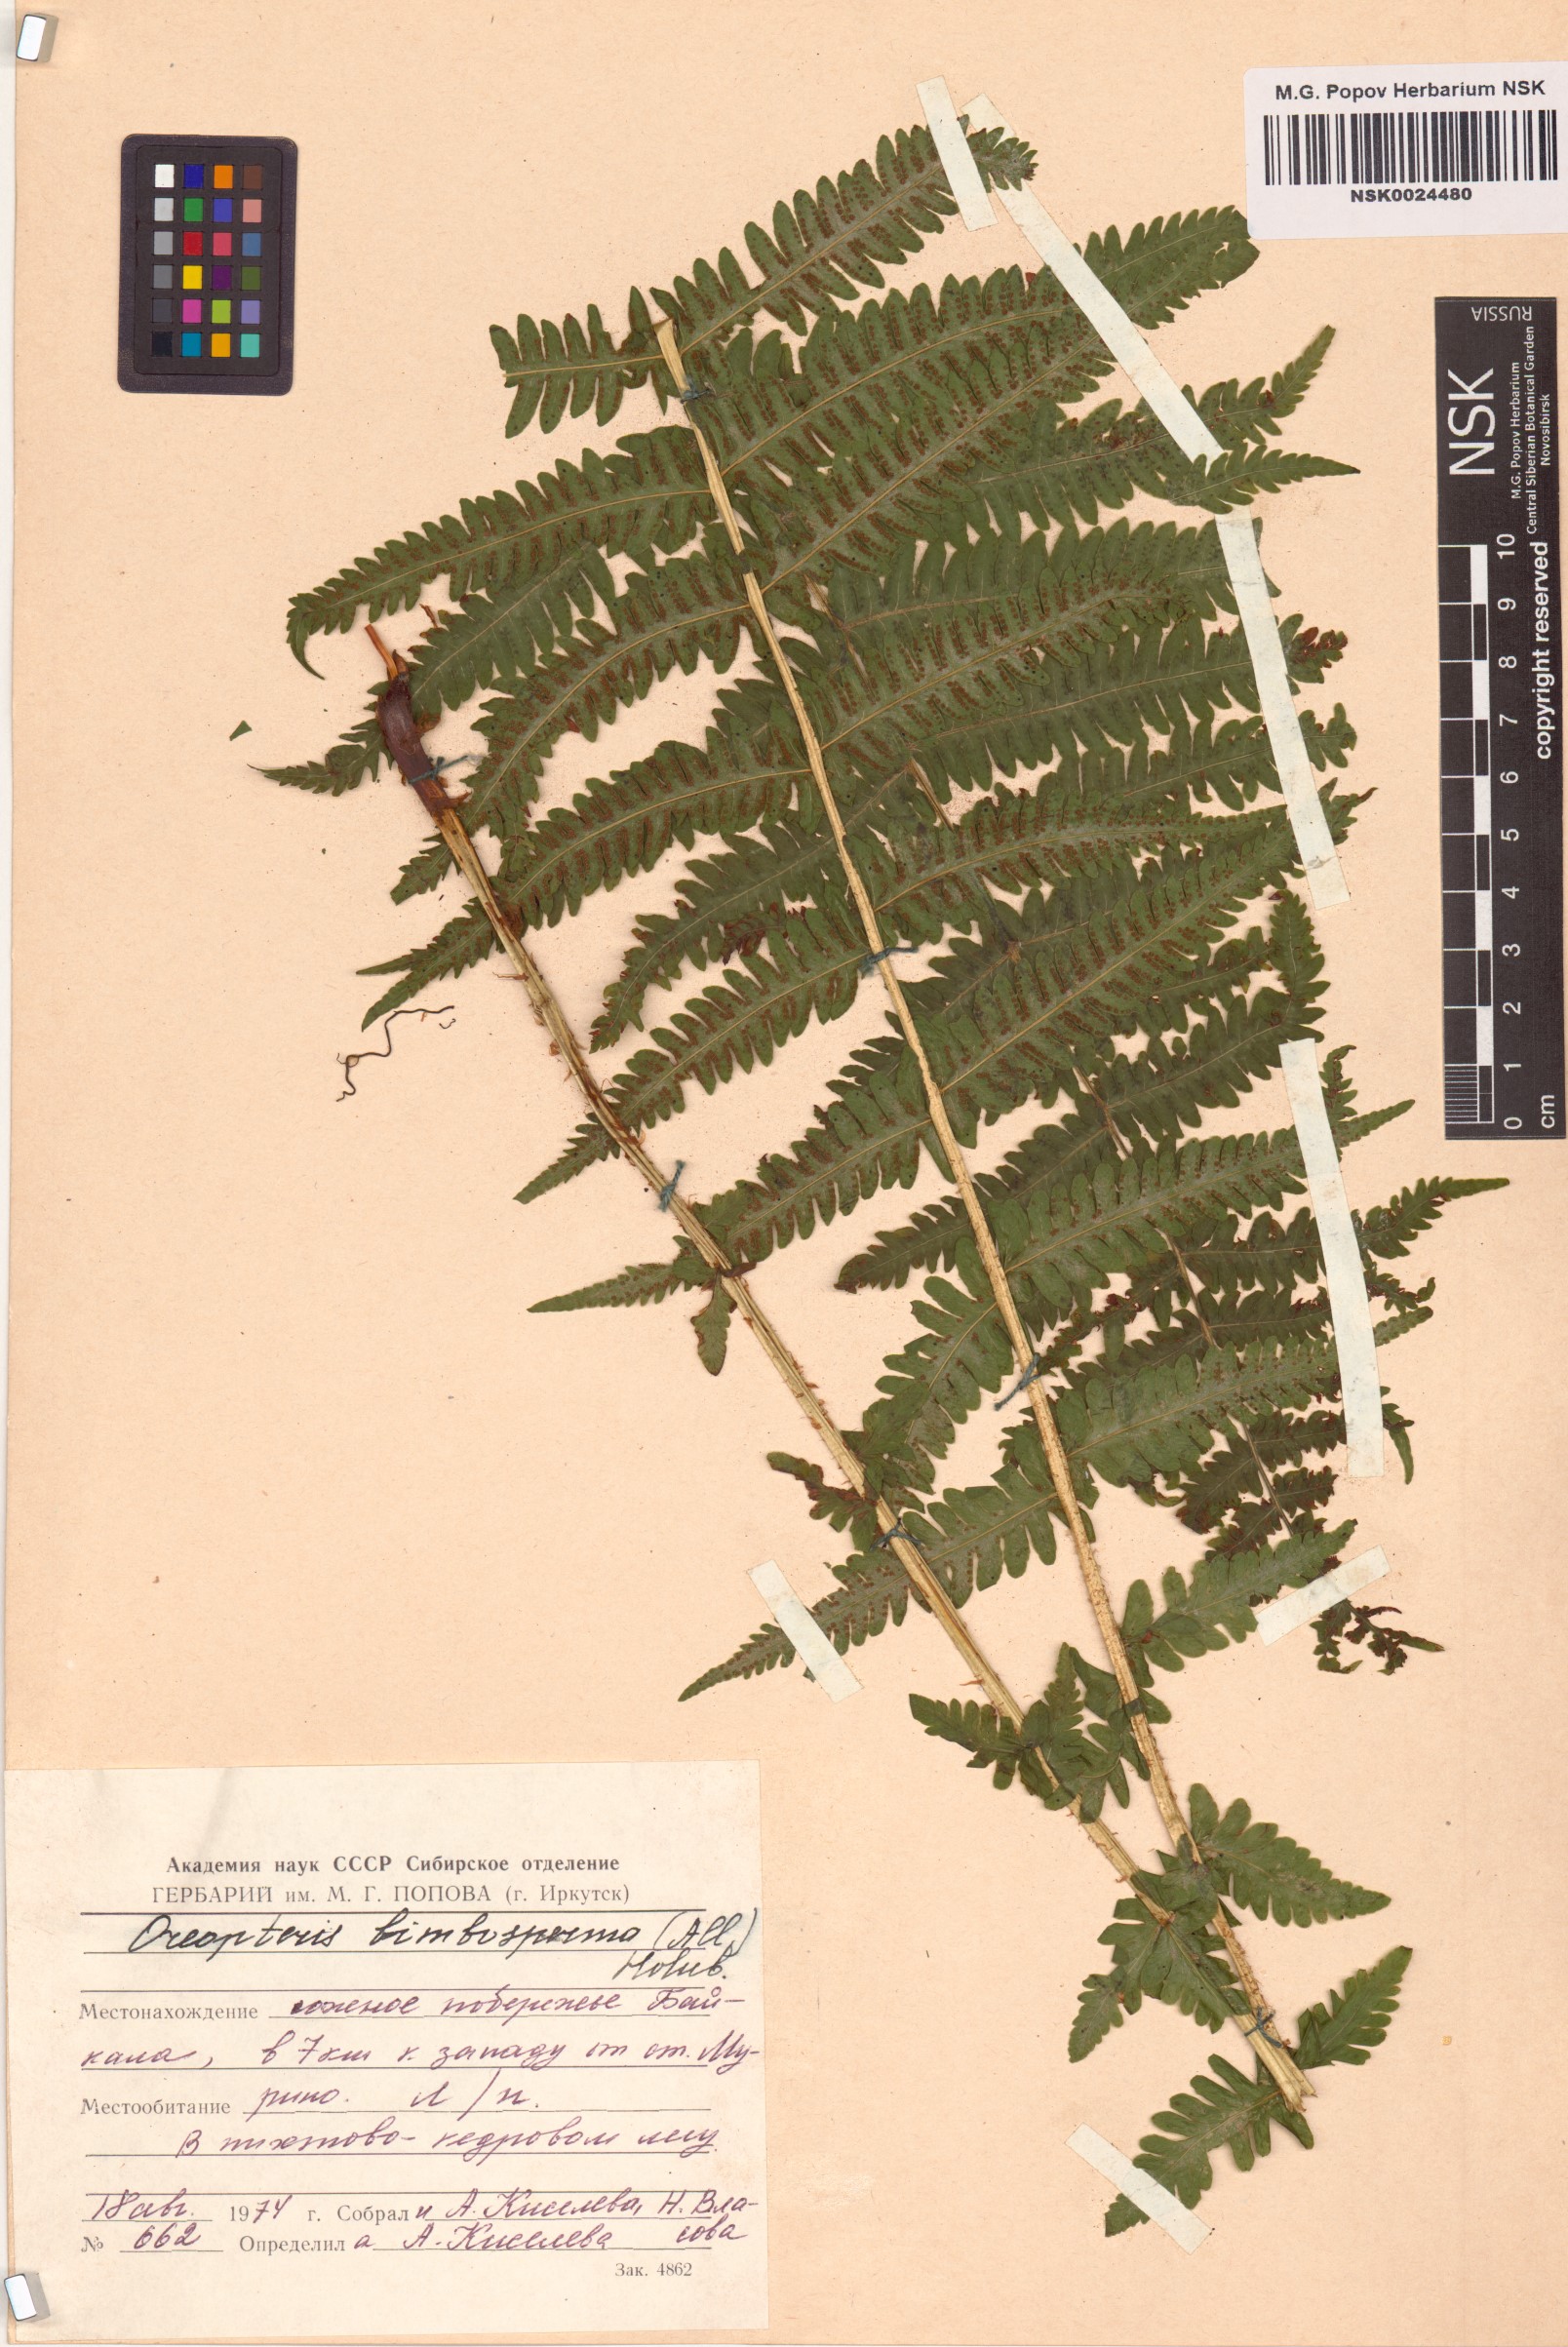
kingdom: Plantae
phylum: Tracheophyta
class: Polypodiopsida
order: Polypodiales
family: Thelypteridaceae
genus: Oreopteris
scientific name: Oreopteris limbosperma
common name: Lemon-scented fern
